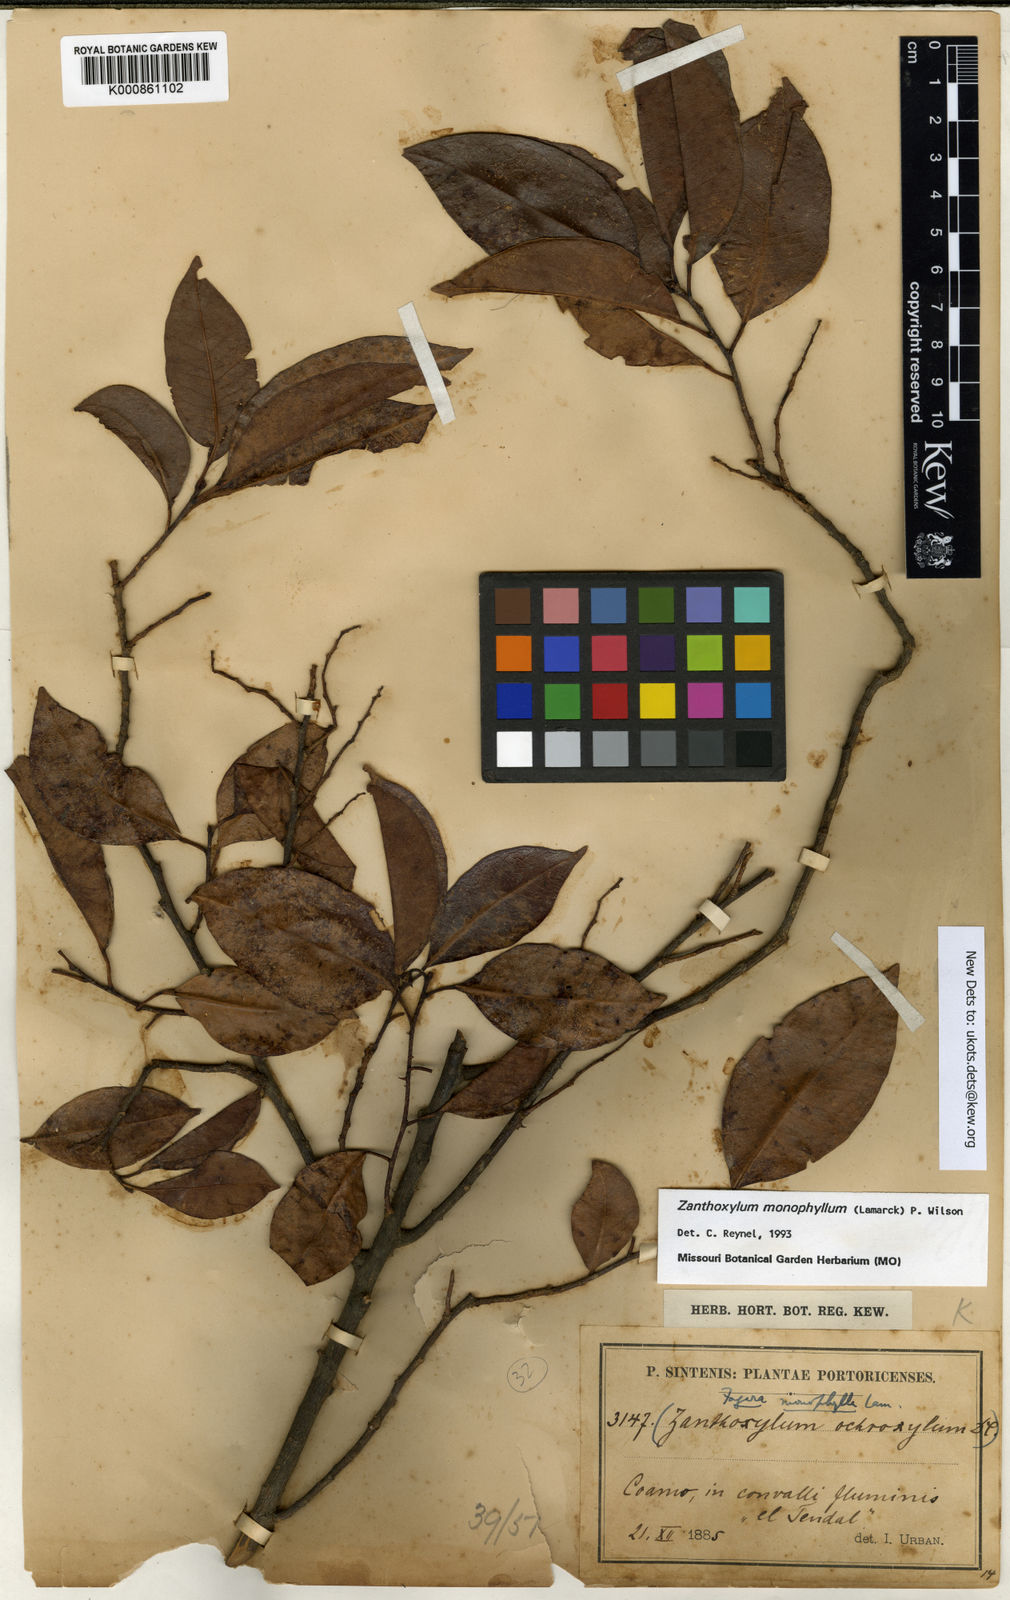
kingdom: Plantae
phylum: Tracheophyta
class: Magnoliopsida
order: Sapindales
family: Rutaceae
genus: Zanthoxylum
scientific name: Zanthoxylum schreberi
